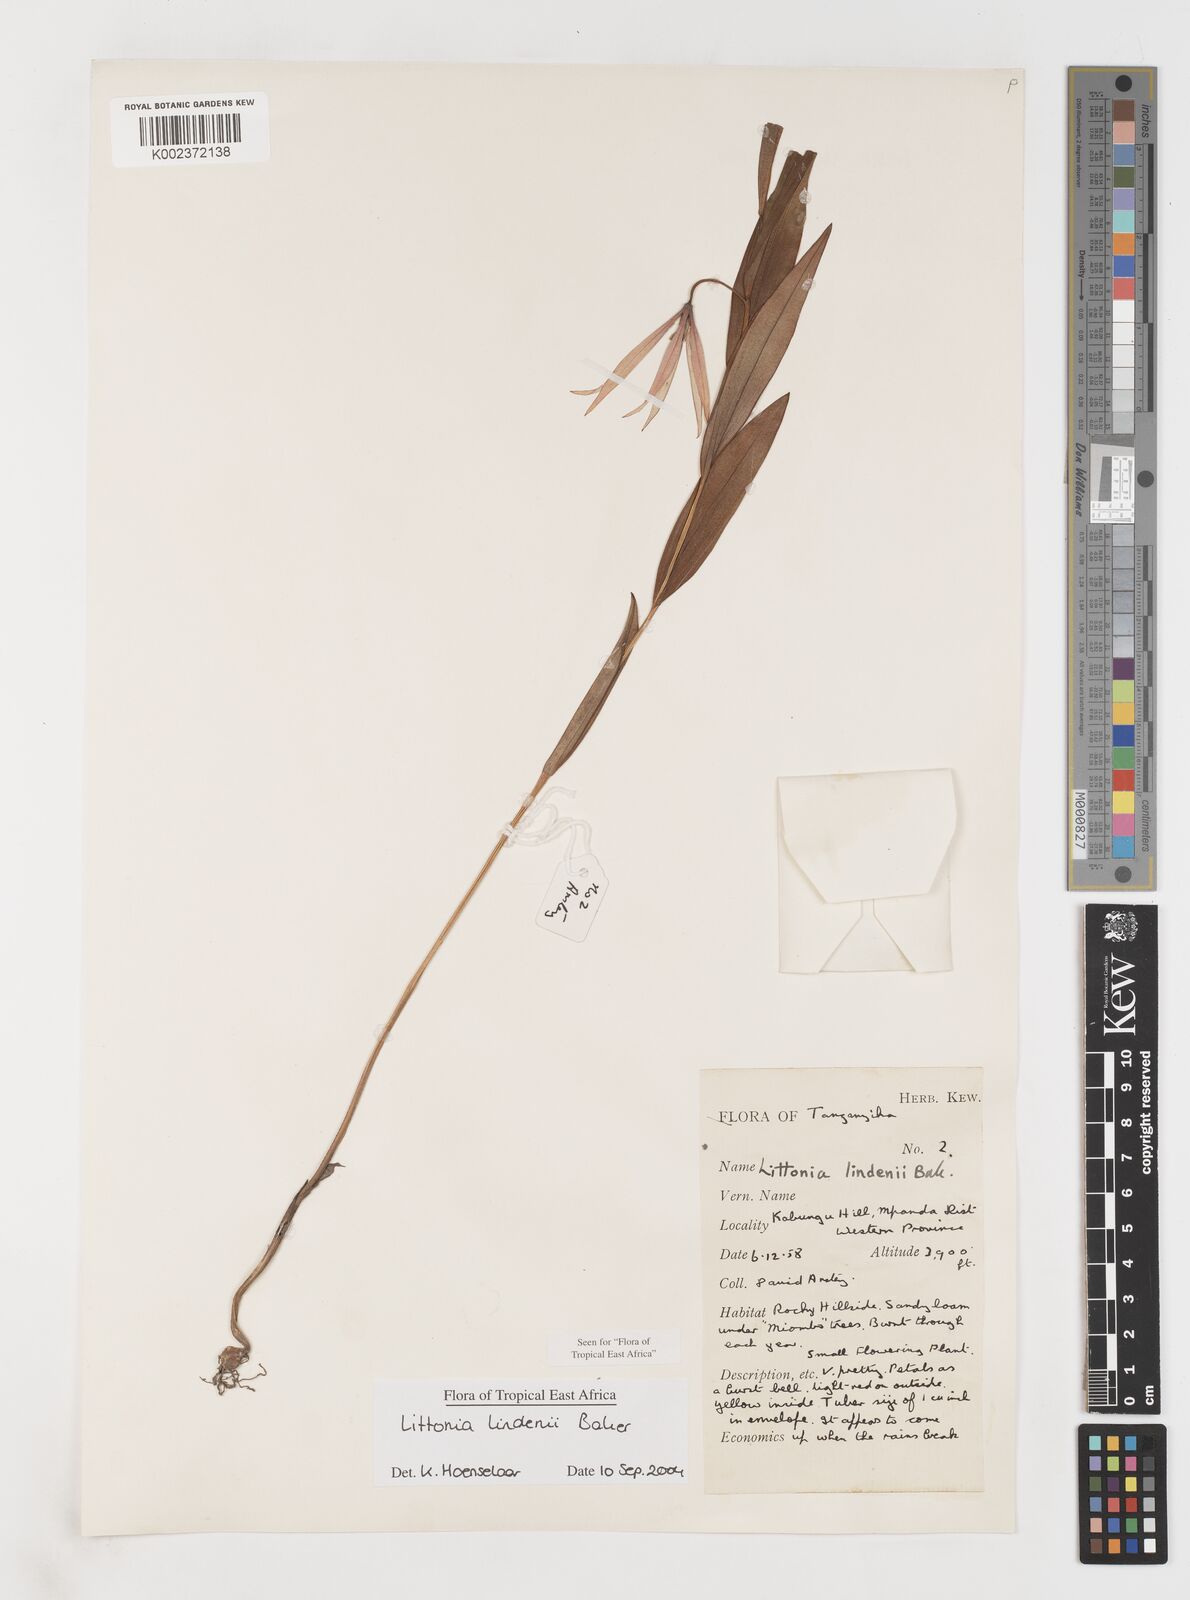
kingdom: Plantae
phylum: Tracheophyta
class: Liliopsida
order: Liliales
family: Colchicaceae
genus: Gloriosa
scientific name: Gloriosa lindenii
